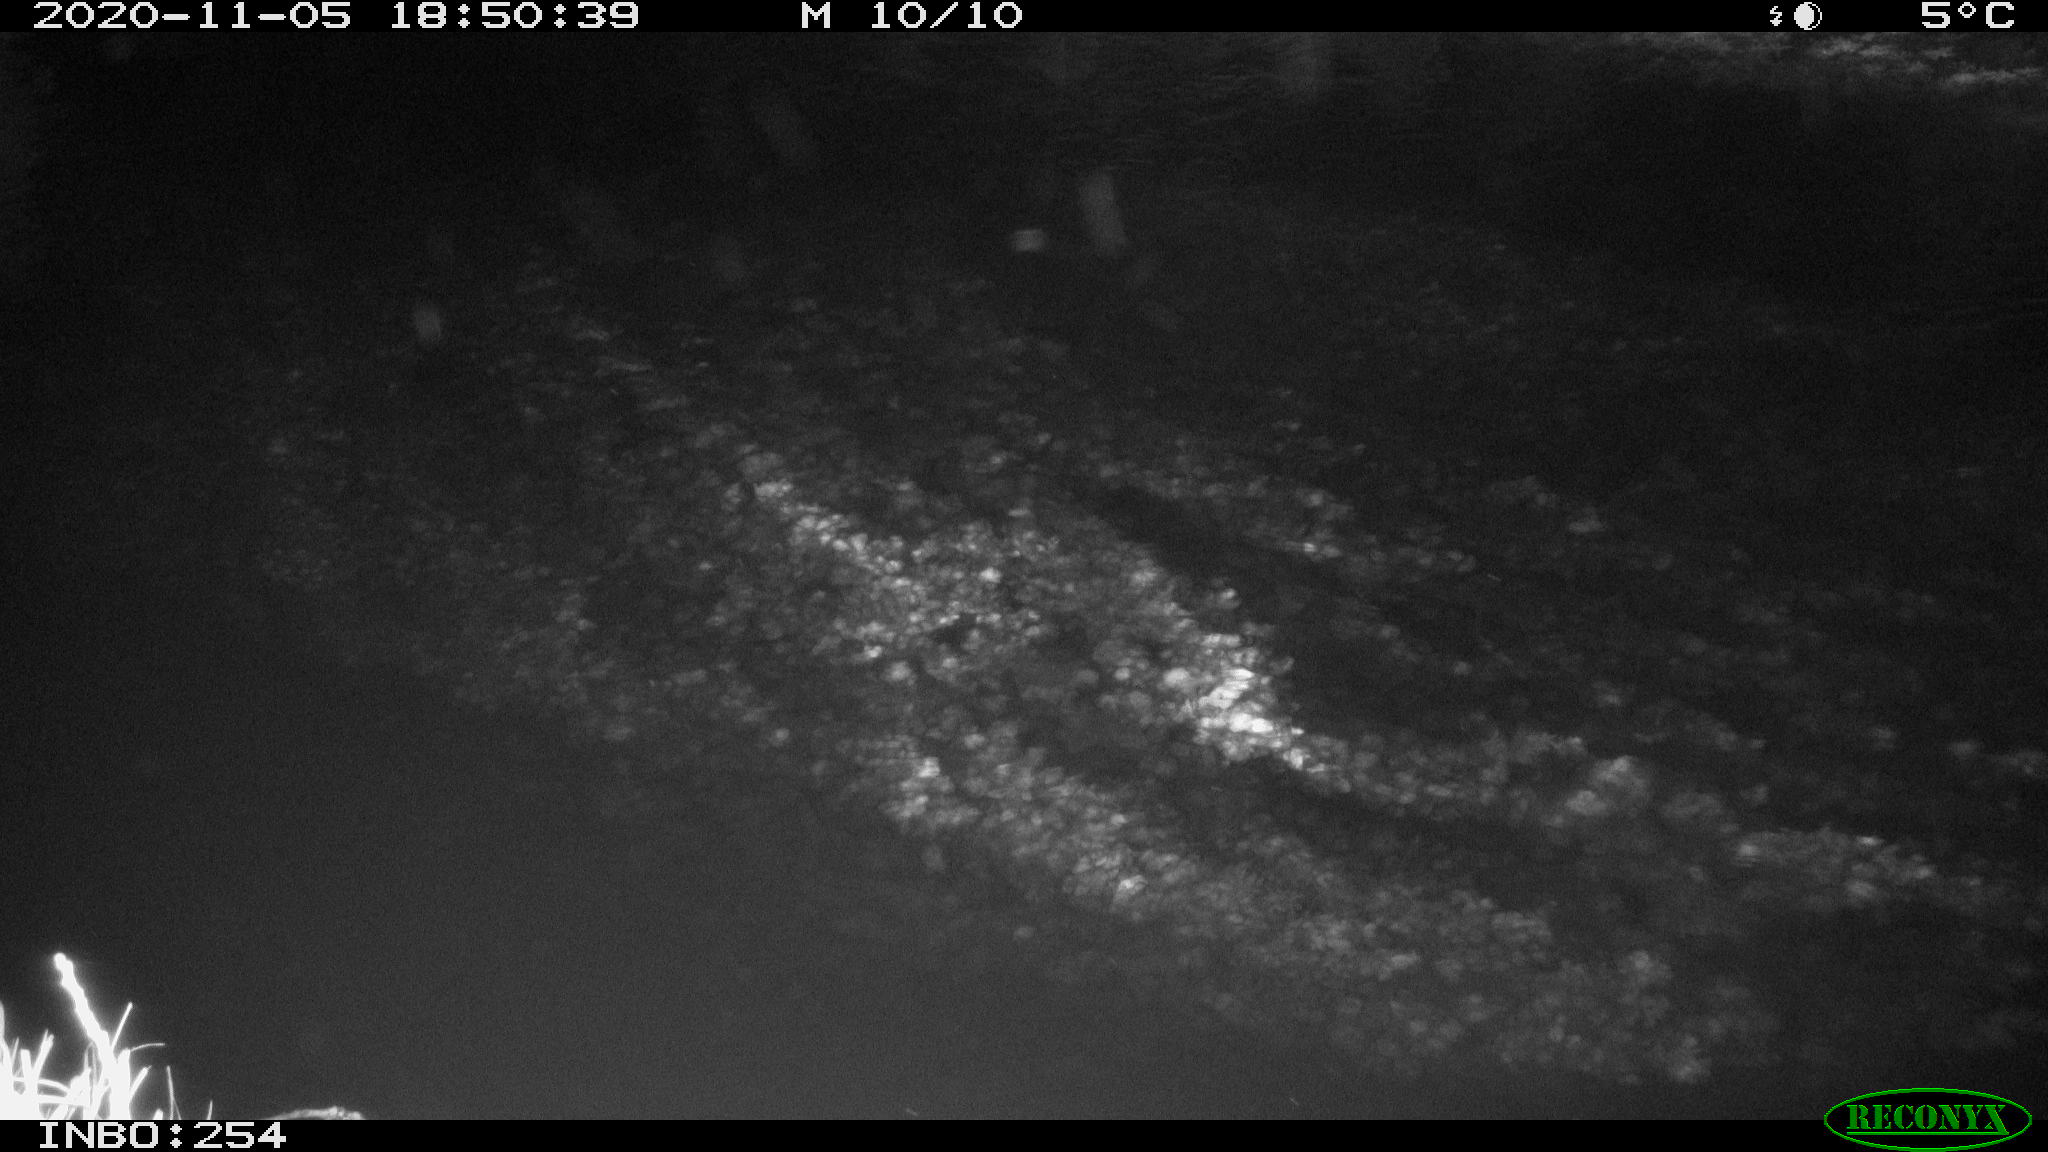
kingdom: Animalia
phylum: Chordata
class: Mammalia
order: Carnivora
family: Felidae
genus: Felis
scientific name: Felis catus
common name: Domestic cat
